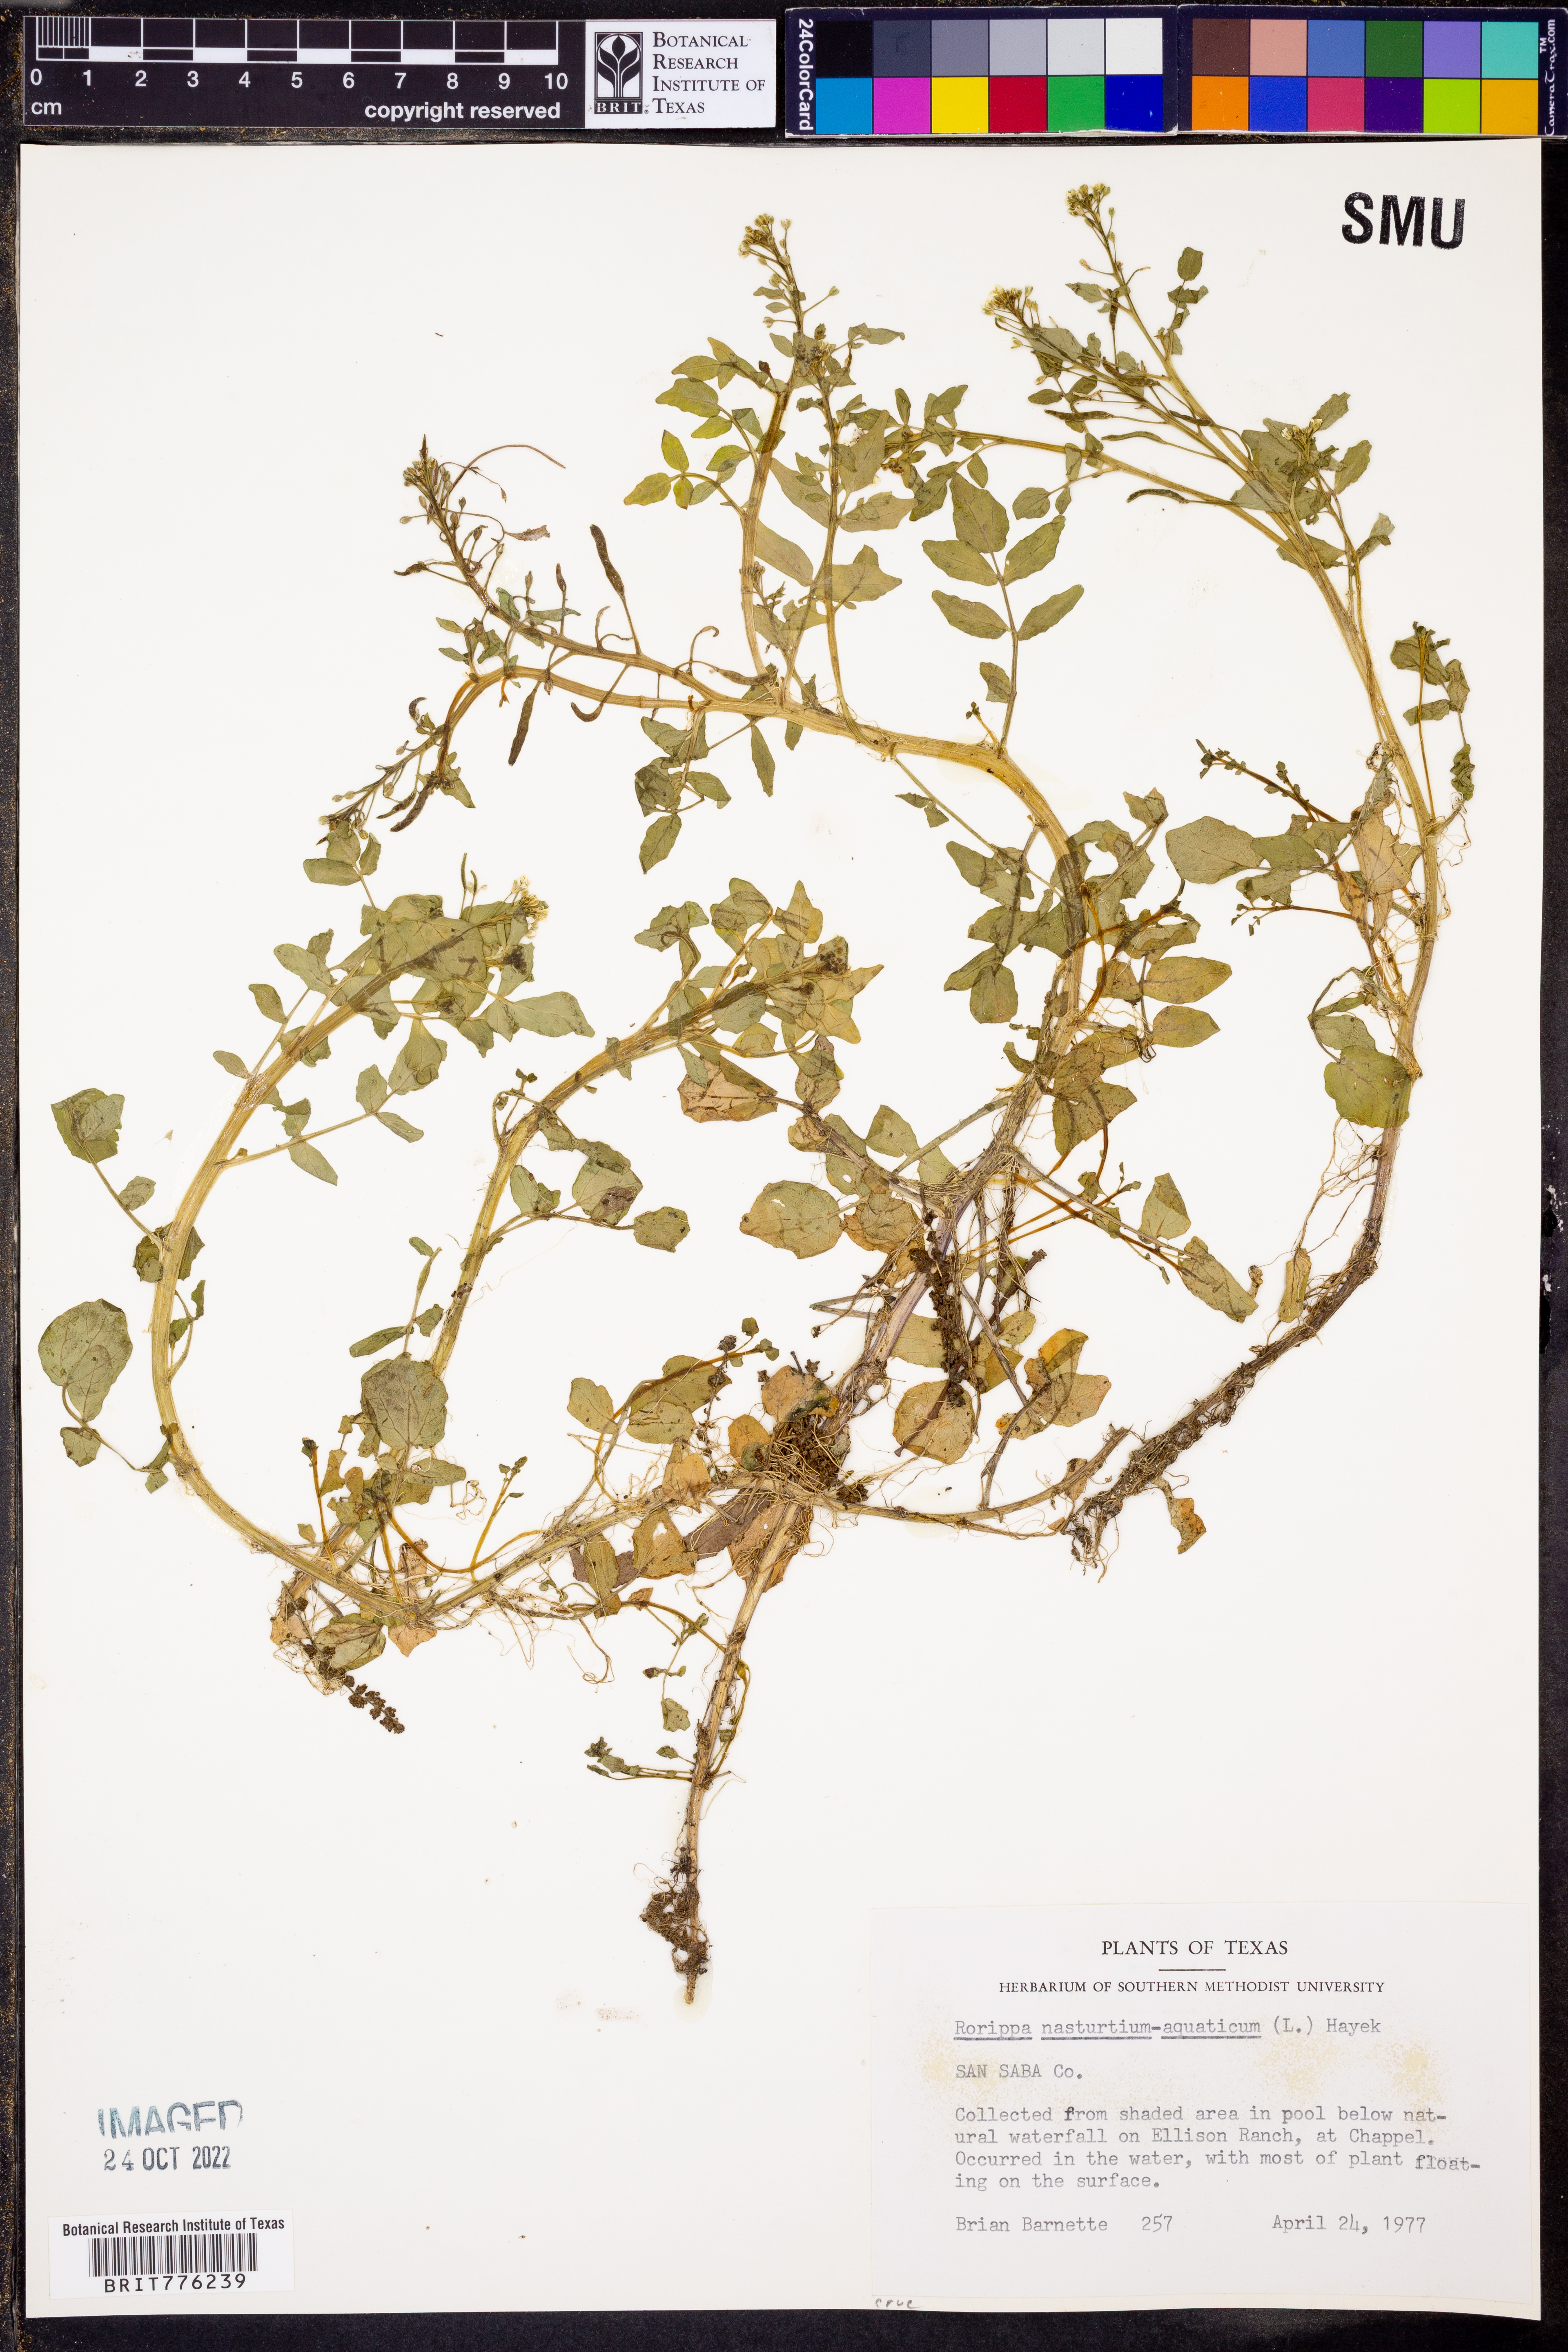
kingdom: Plantae
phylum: Tracheophyta
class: Magnoliopsida
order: Brassicales
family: Brassicaceae
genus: Nasturtium
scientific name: Nasturtium officinale
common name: Watercress
